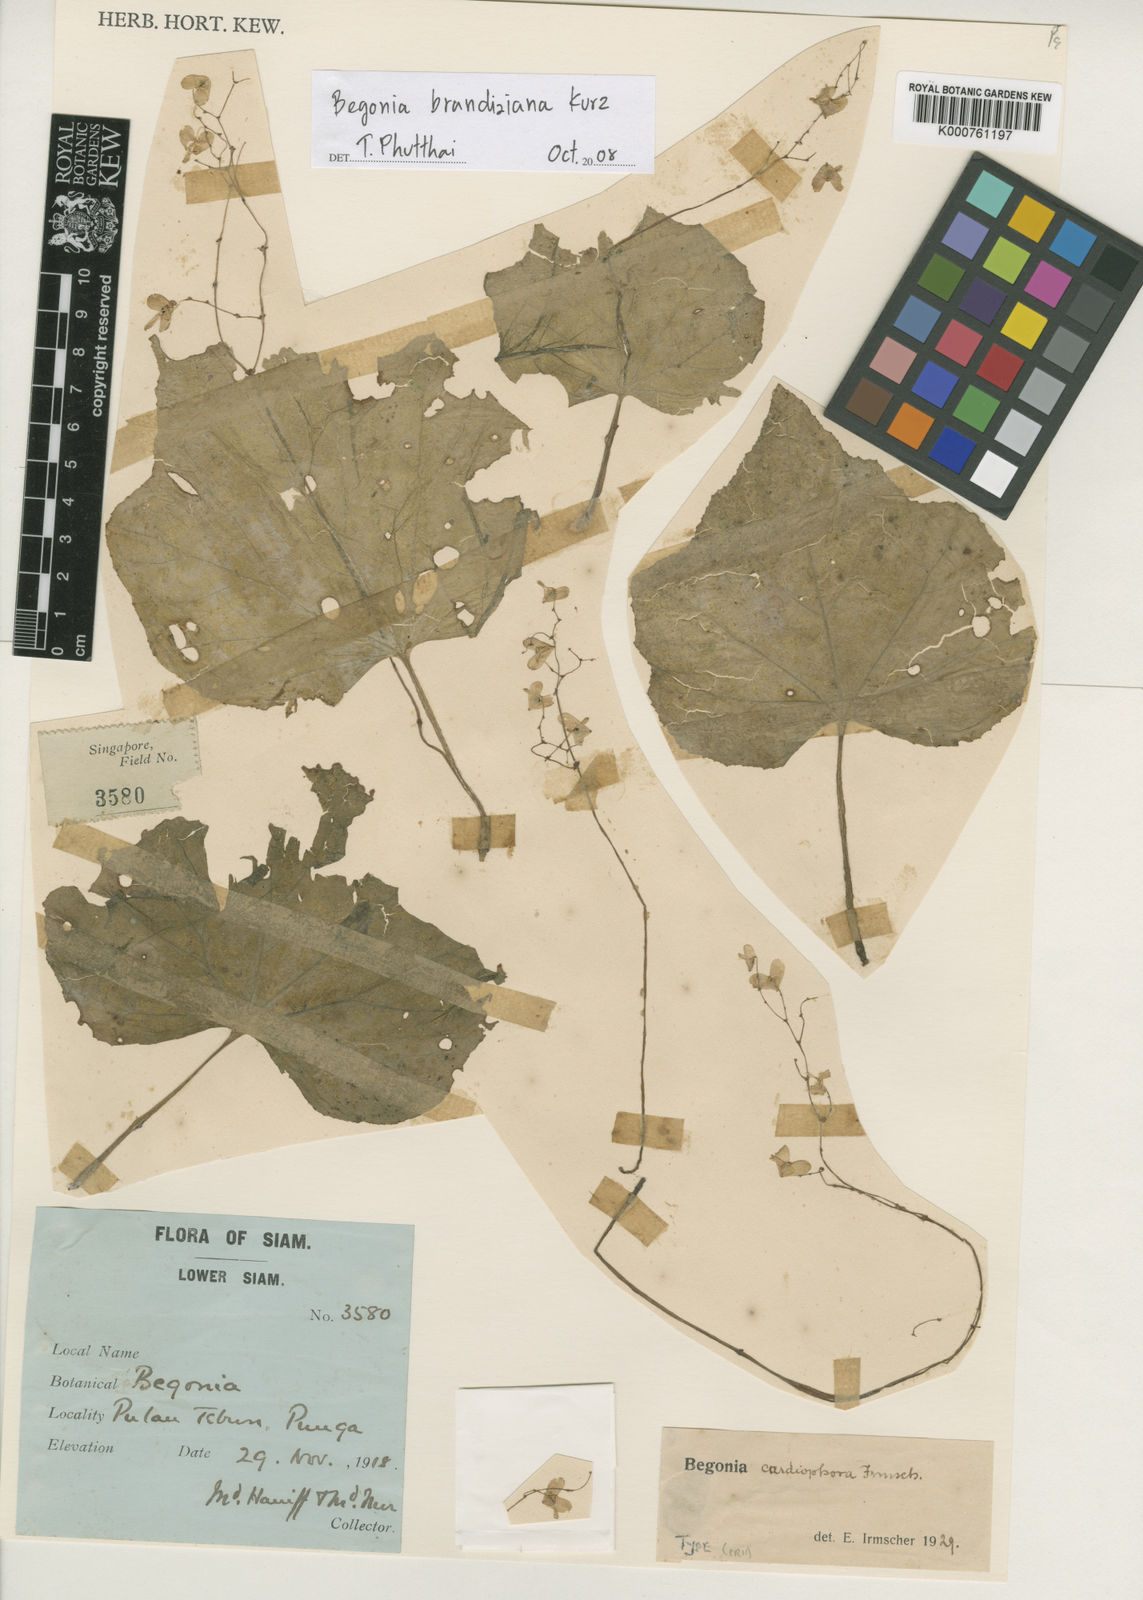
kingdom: Plantae
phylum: Tracheophyta
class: Magnoliopsida
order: Cucurbitales
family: Begoniaceae
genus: Begonia
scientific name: Begonia brandisiana
